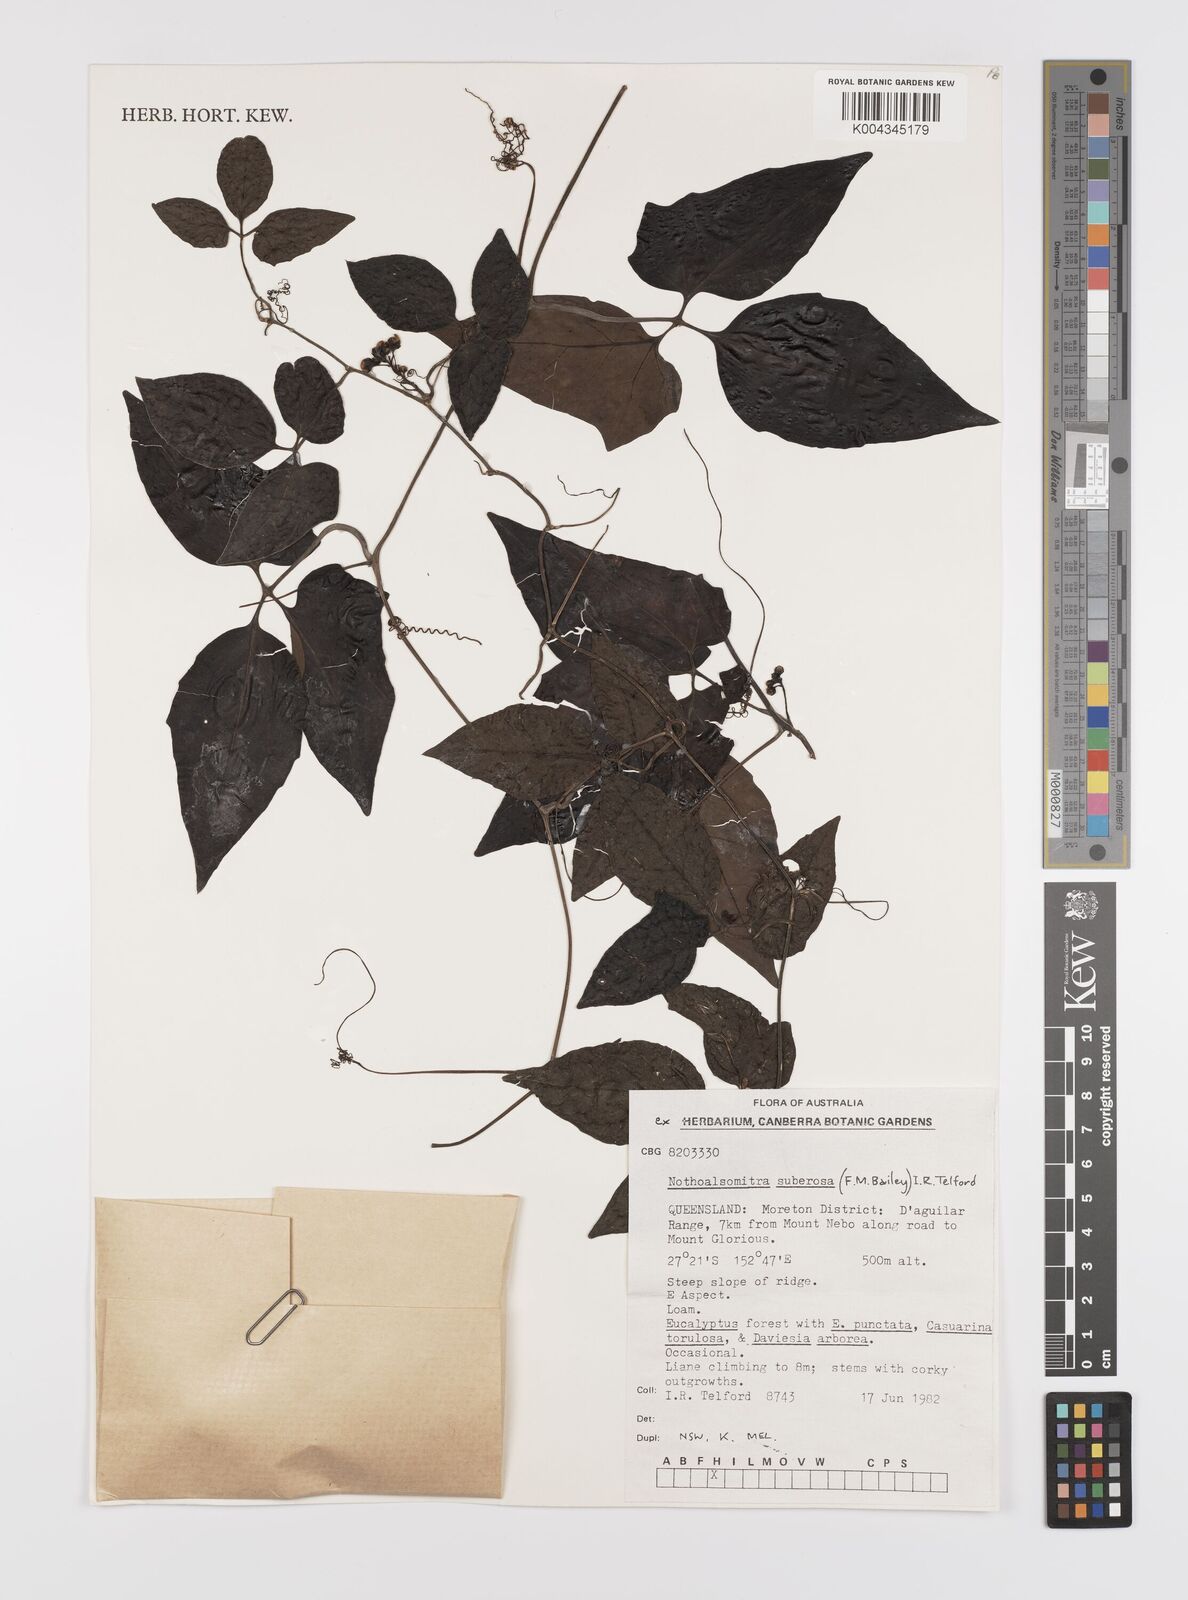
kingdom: Plantae
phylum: Tracheophyta
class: Magnoliopsida
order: Cucurbitales
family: Cucurbitaceae
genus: Nothoalsomitra
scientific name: Nothoalsomitra suberosa
